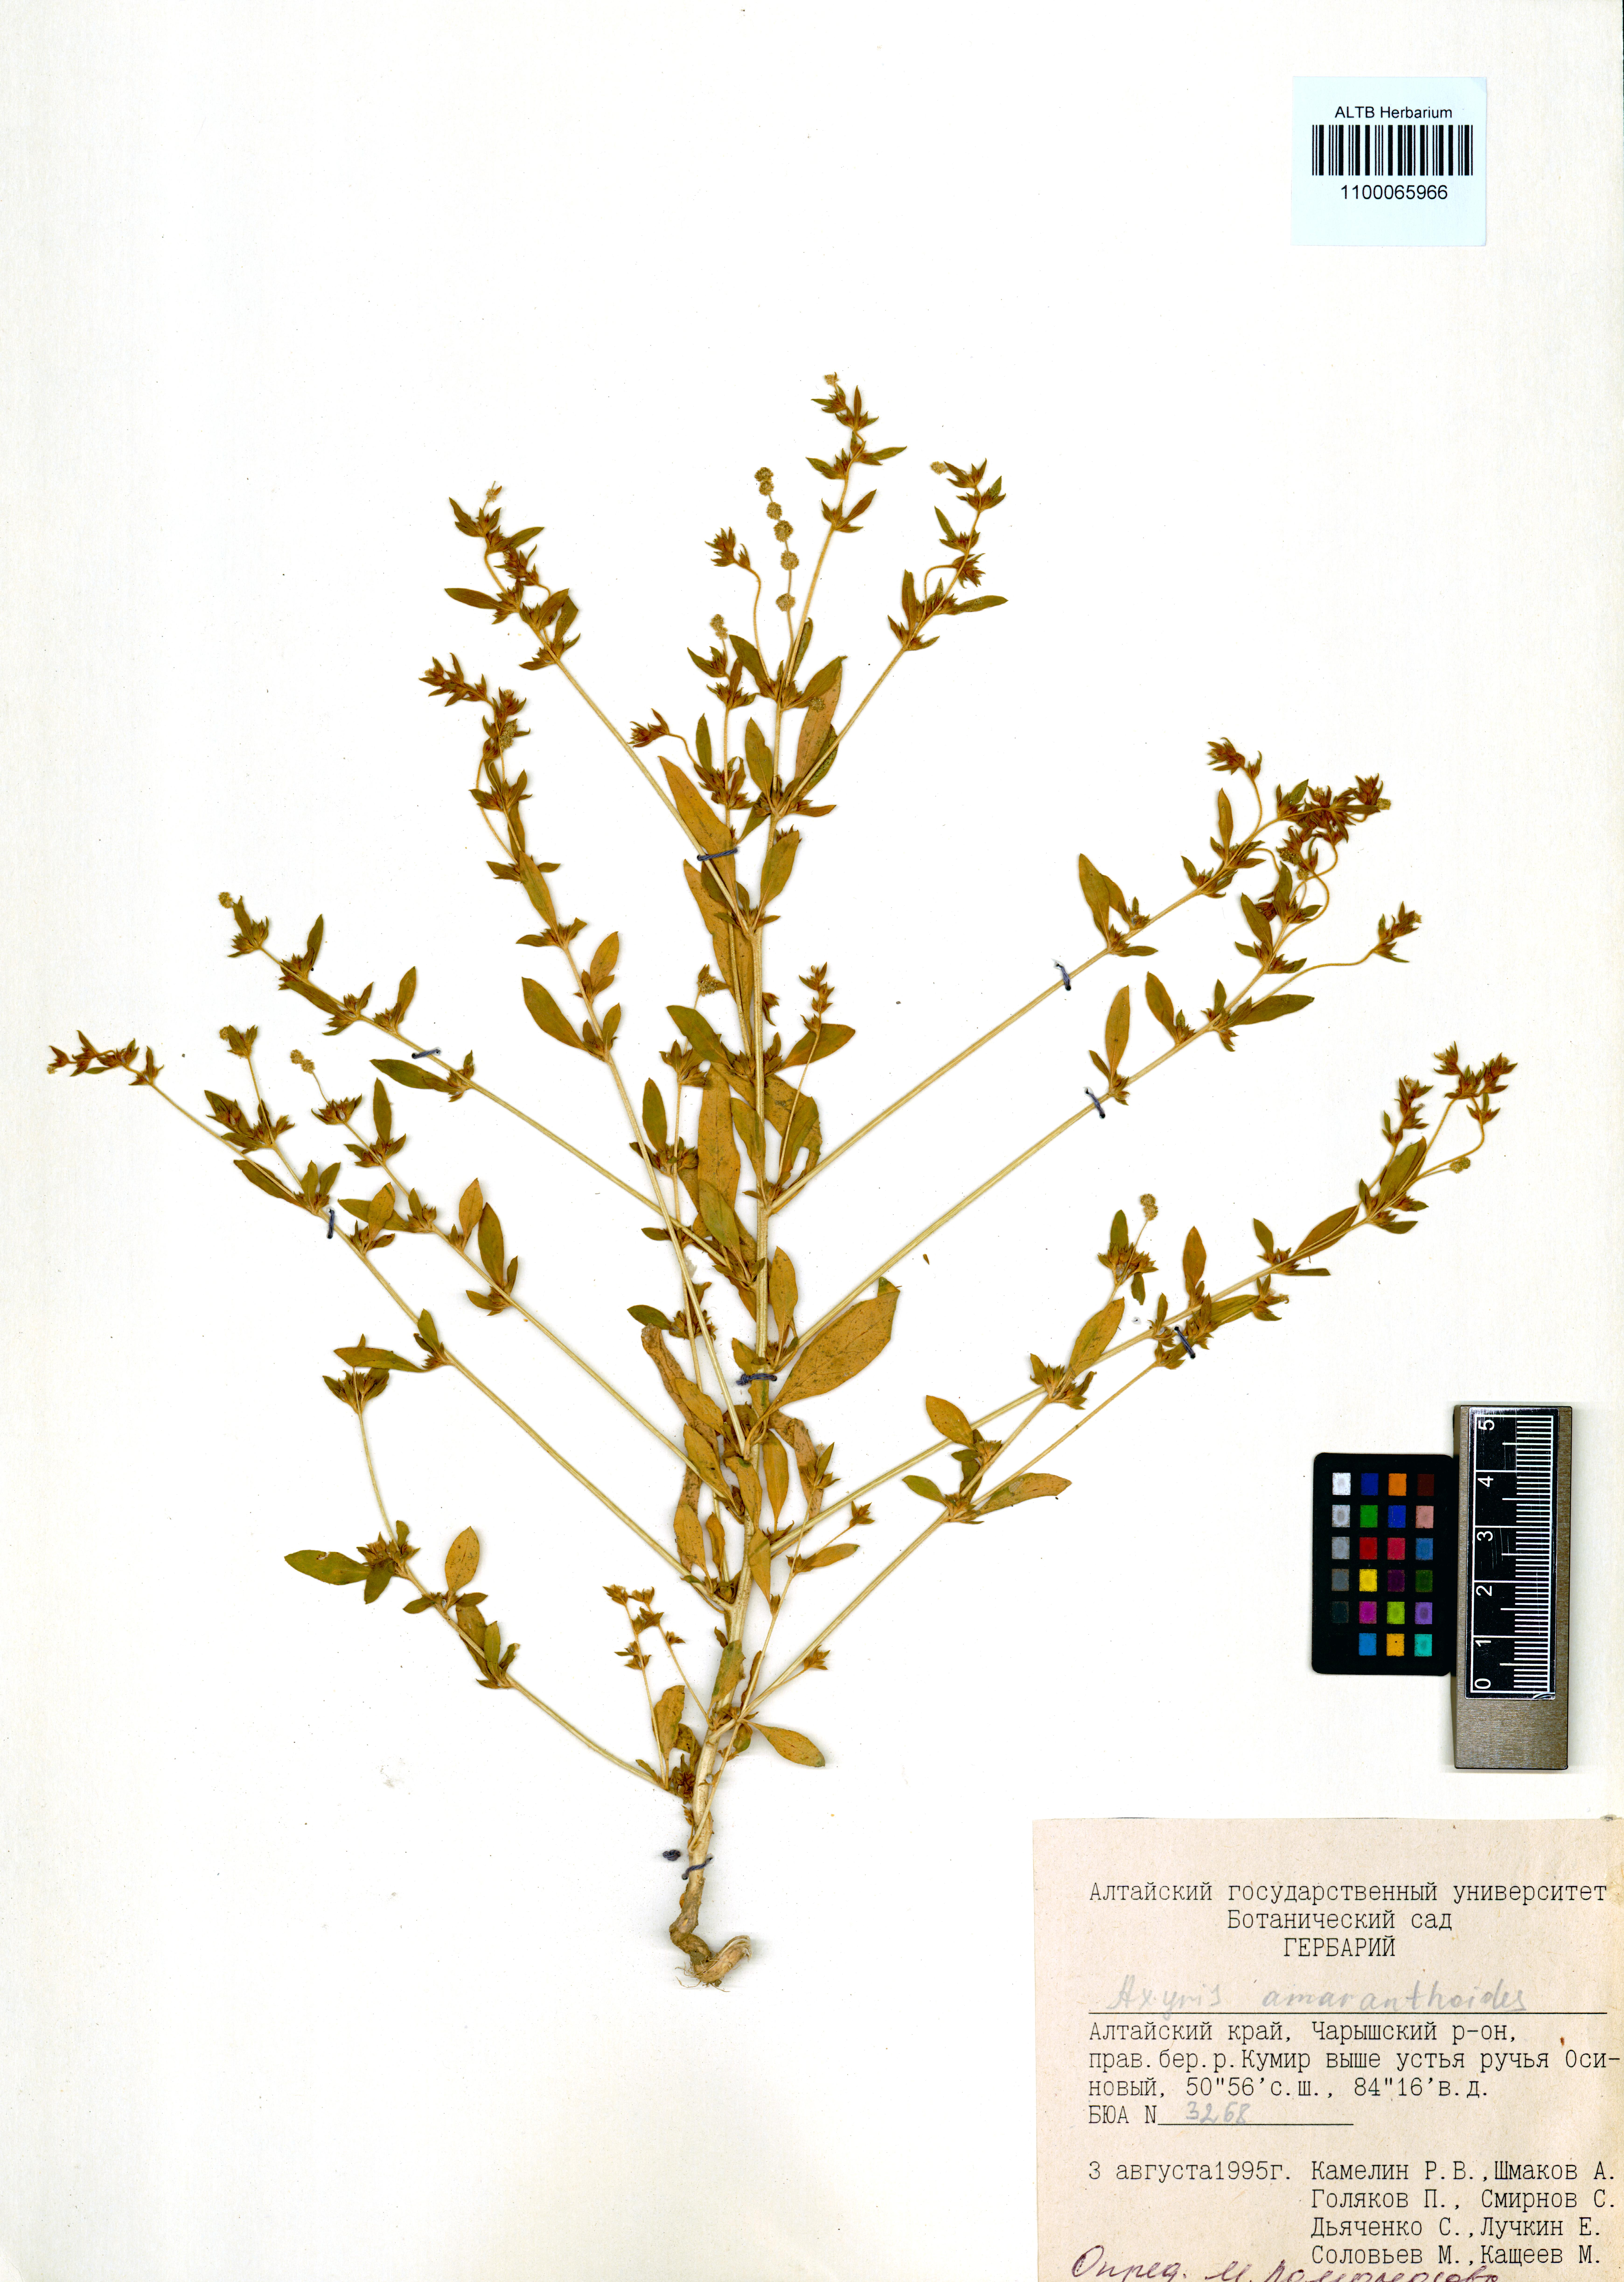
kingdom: Plantae
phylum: Tracheophyta
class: Magnoliopsida
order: Caryophyllales
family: Amaranthaceae
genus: Axyris
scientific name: Axyris amaranthoides
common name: Russian pigweed
